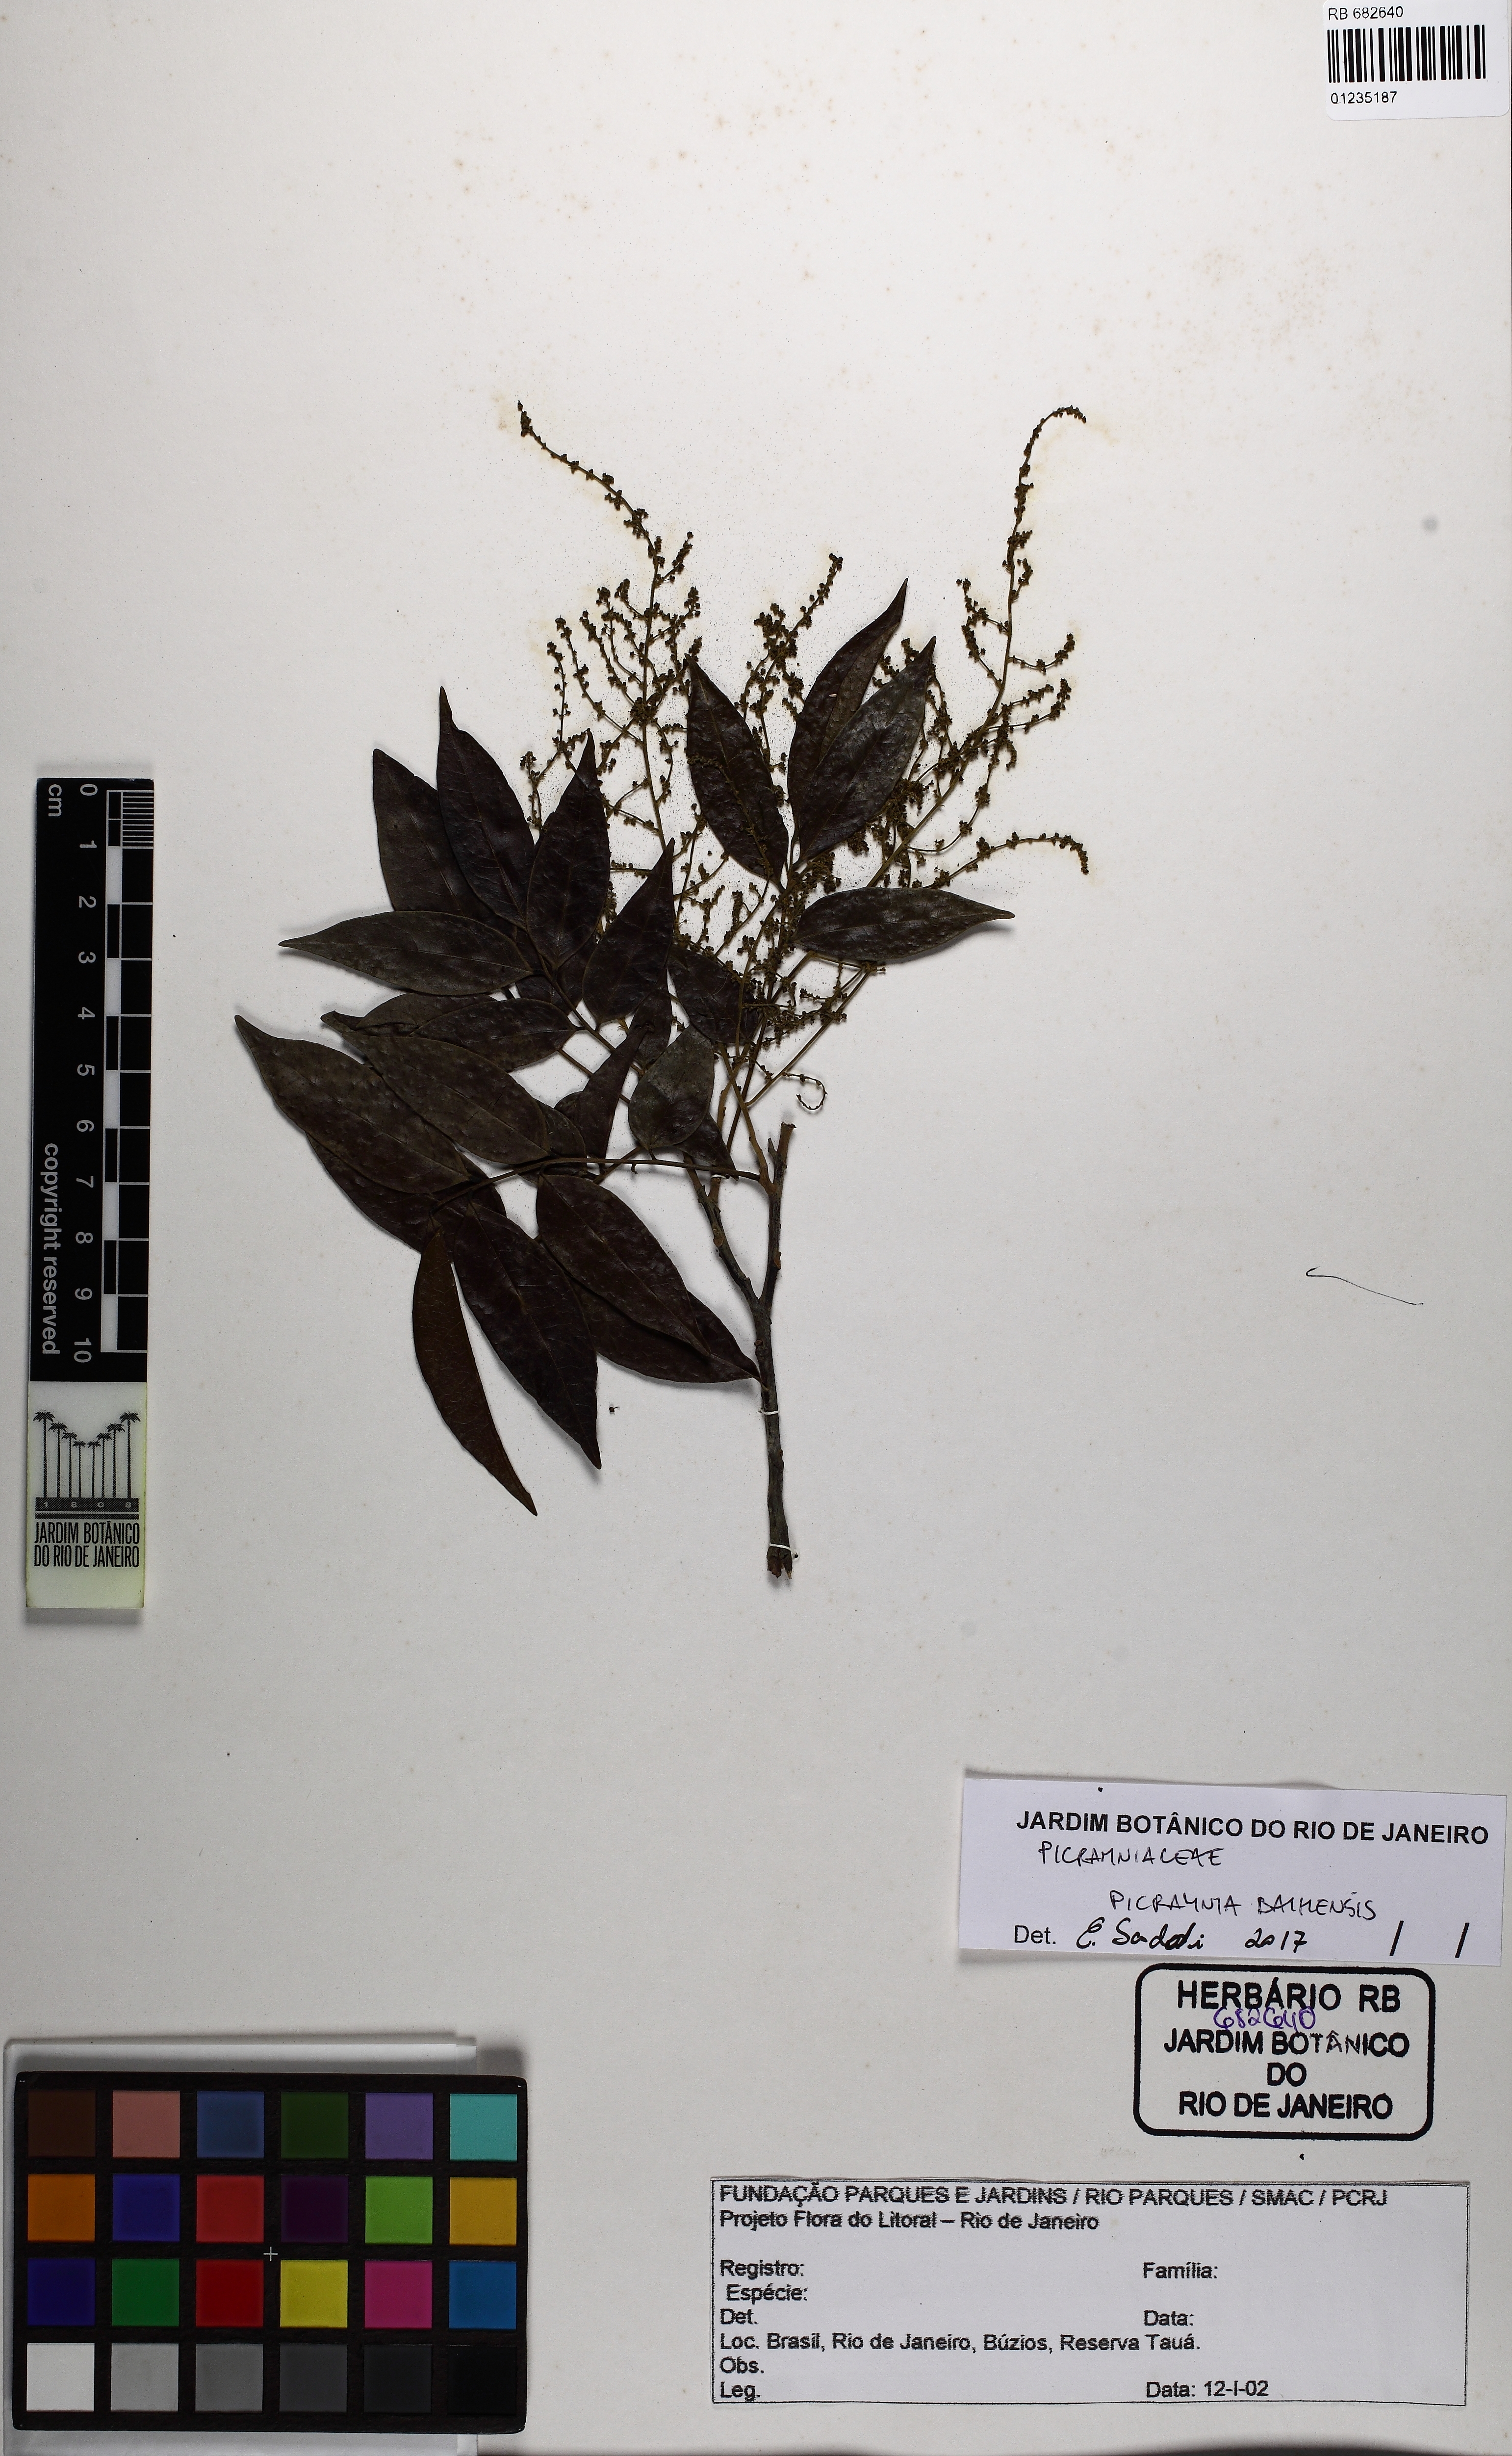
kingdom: Plantae
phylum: Tracheophyta
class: Magnoliopsida
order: Picramniales
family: Picramniaceae
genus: Picramnia
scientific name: Picramnia bahiensis
